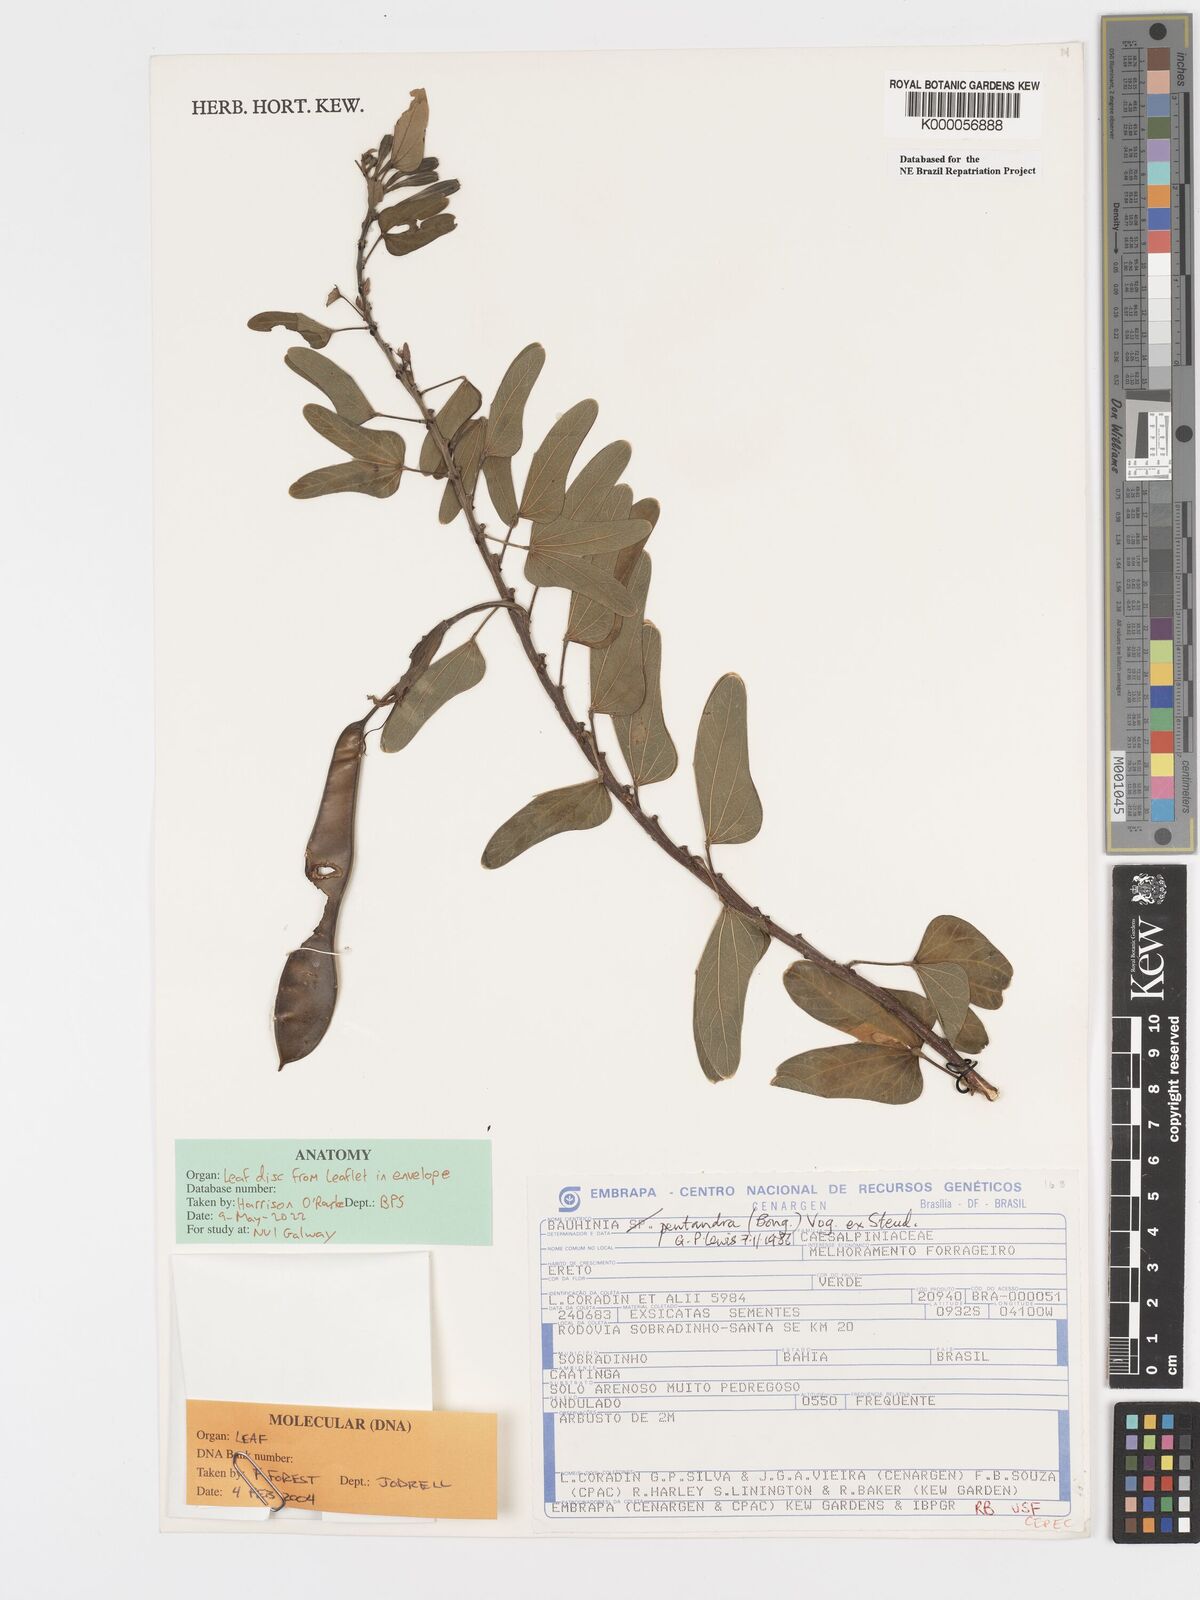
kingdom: Plantae
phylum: Tracheophyta
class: Magnoliopsida
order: Fabales
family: Fabaceae
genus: Bauhinia
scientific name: Bauhinia
